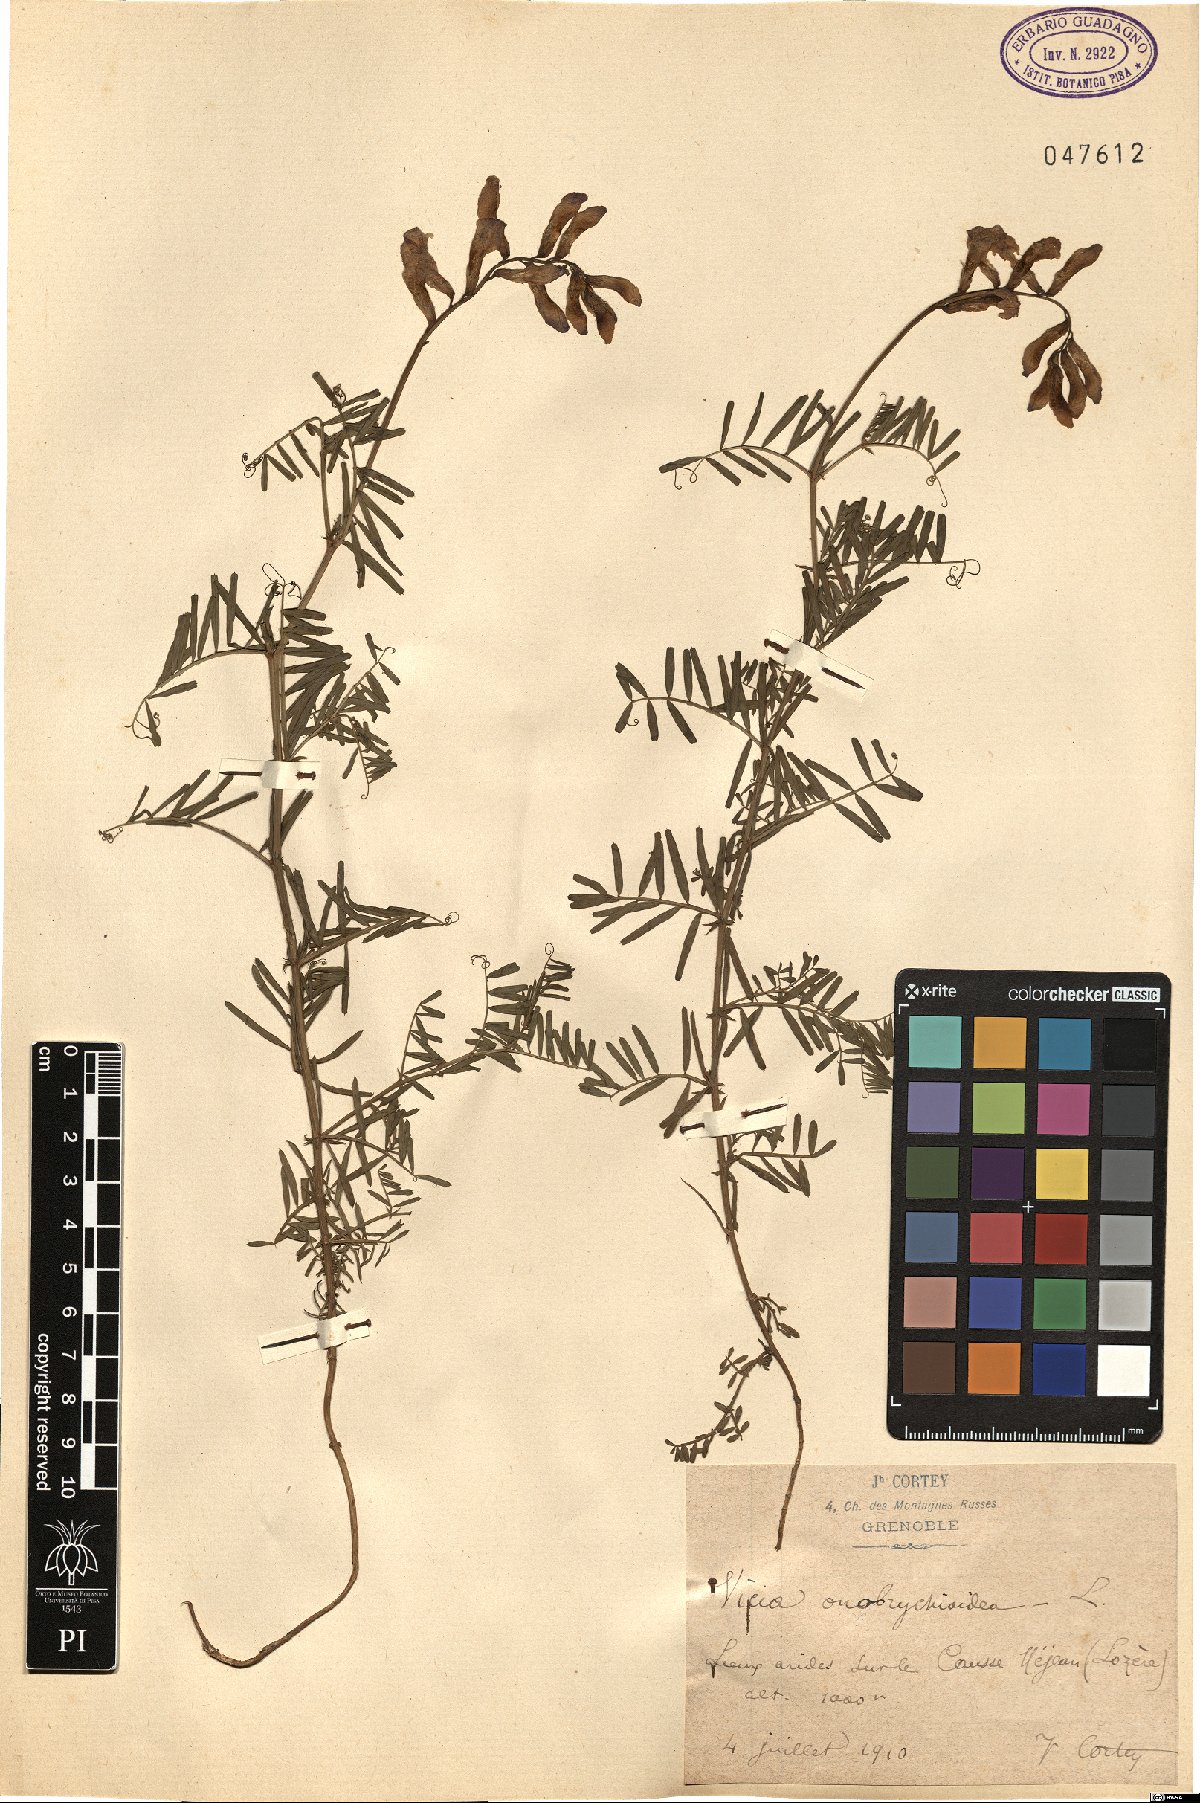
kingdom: Plantae
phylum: Tracheophyta
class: Magnoliopsida
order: Fabales
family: Fabaceae
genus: Vicia
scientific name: Vicia onobrychioides
